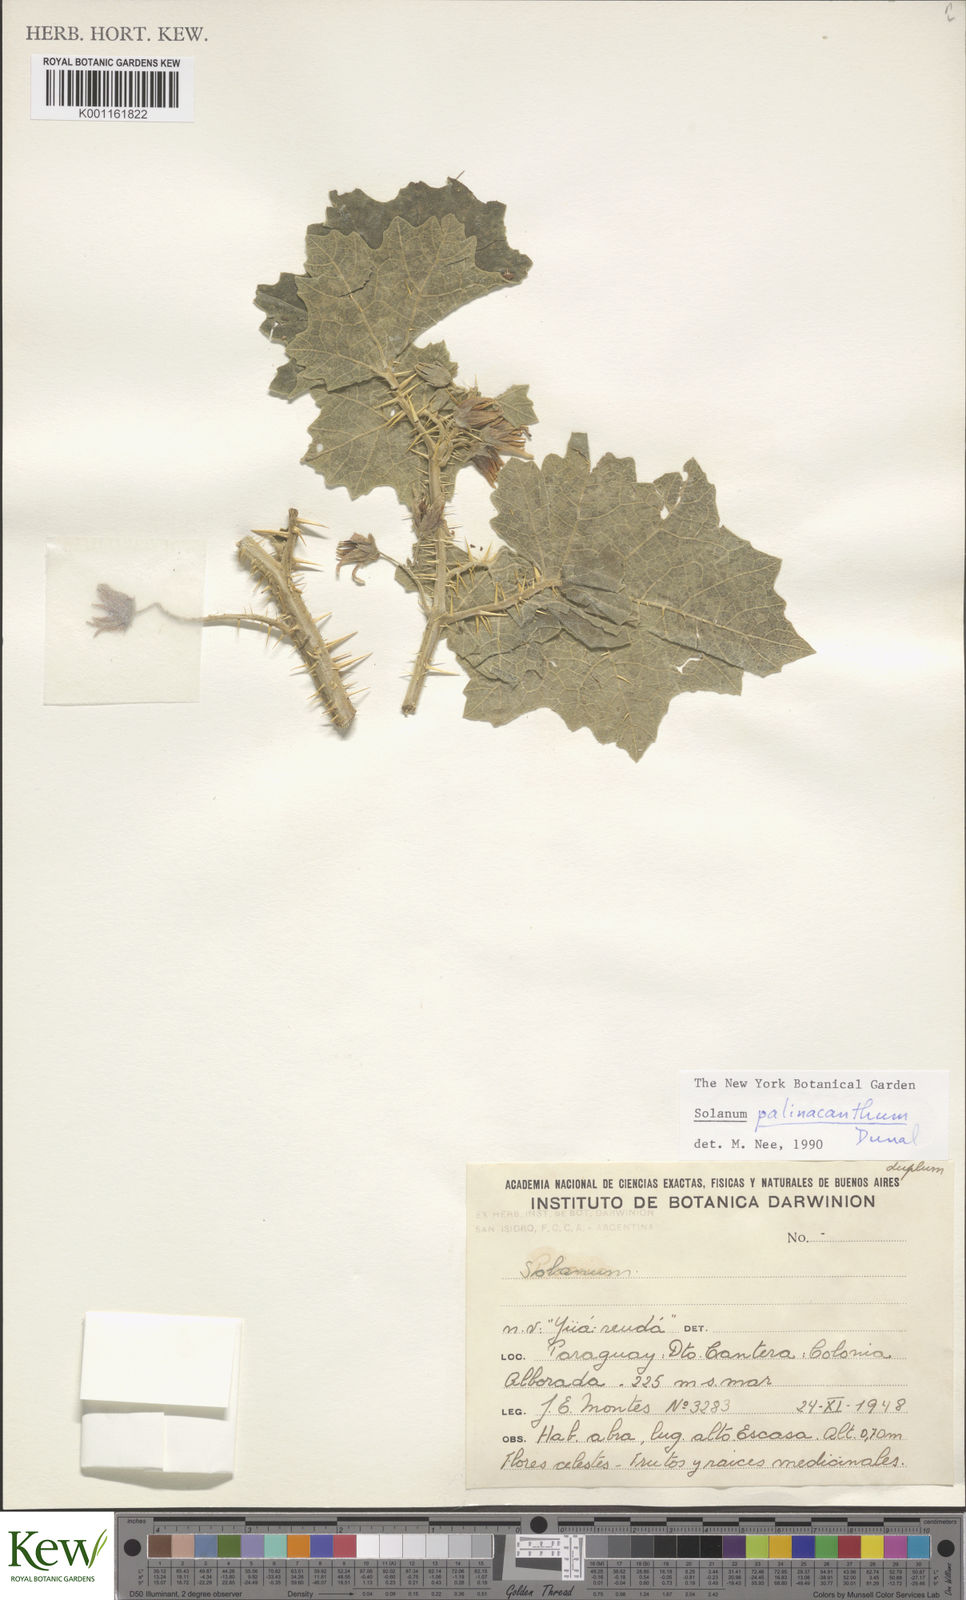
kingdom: Plantae
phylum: Tracheophyta
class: Magnoliopsida
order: Solanales
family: Solanaceae
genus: Solanum
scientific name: Solanum palinacanthum
